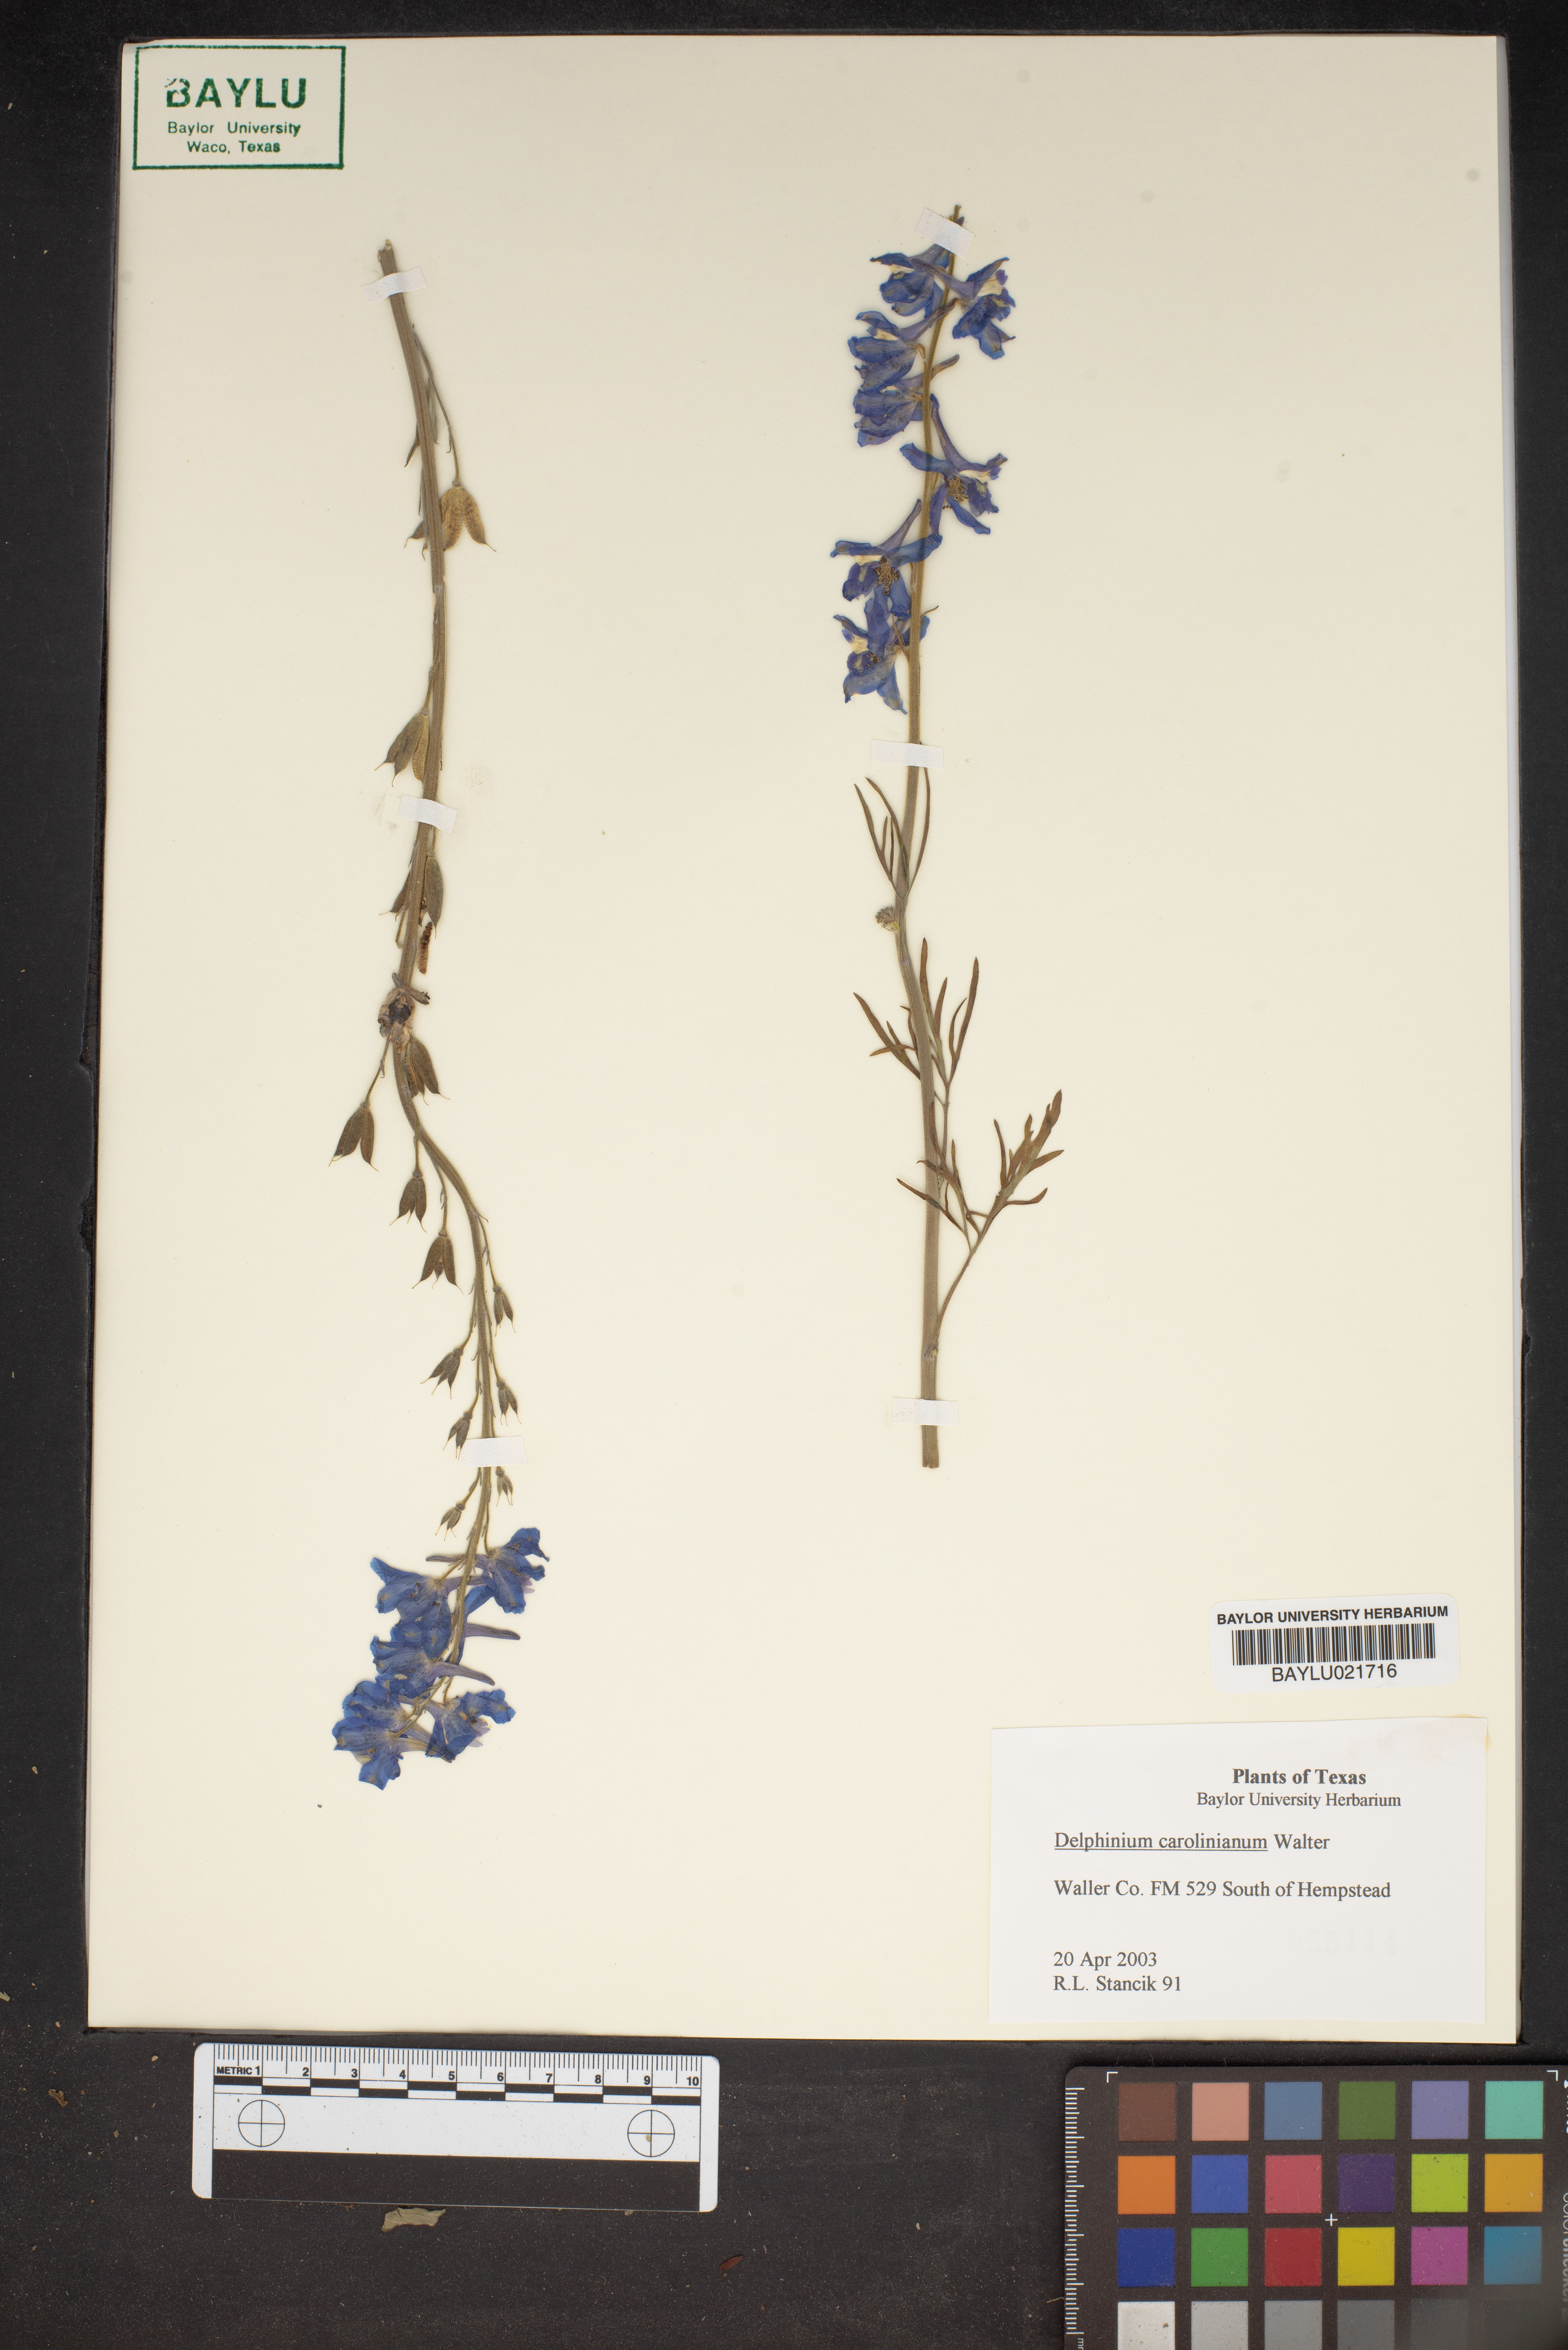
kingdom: Plantae
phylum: Tracheophyta
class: Magnoliopsida
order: Ranunculales
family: Ranunculaceae
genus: Delphinium
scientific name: Delphinium carolinianum
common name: Carolina larkspur
